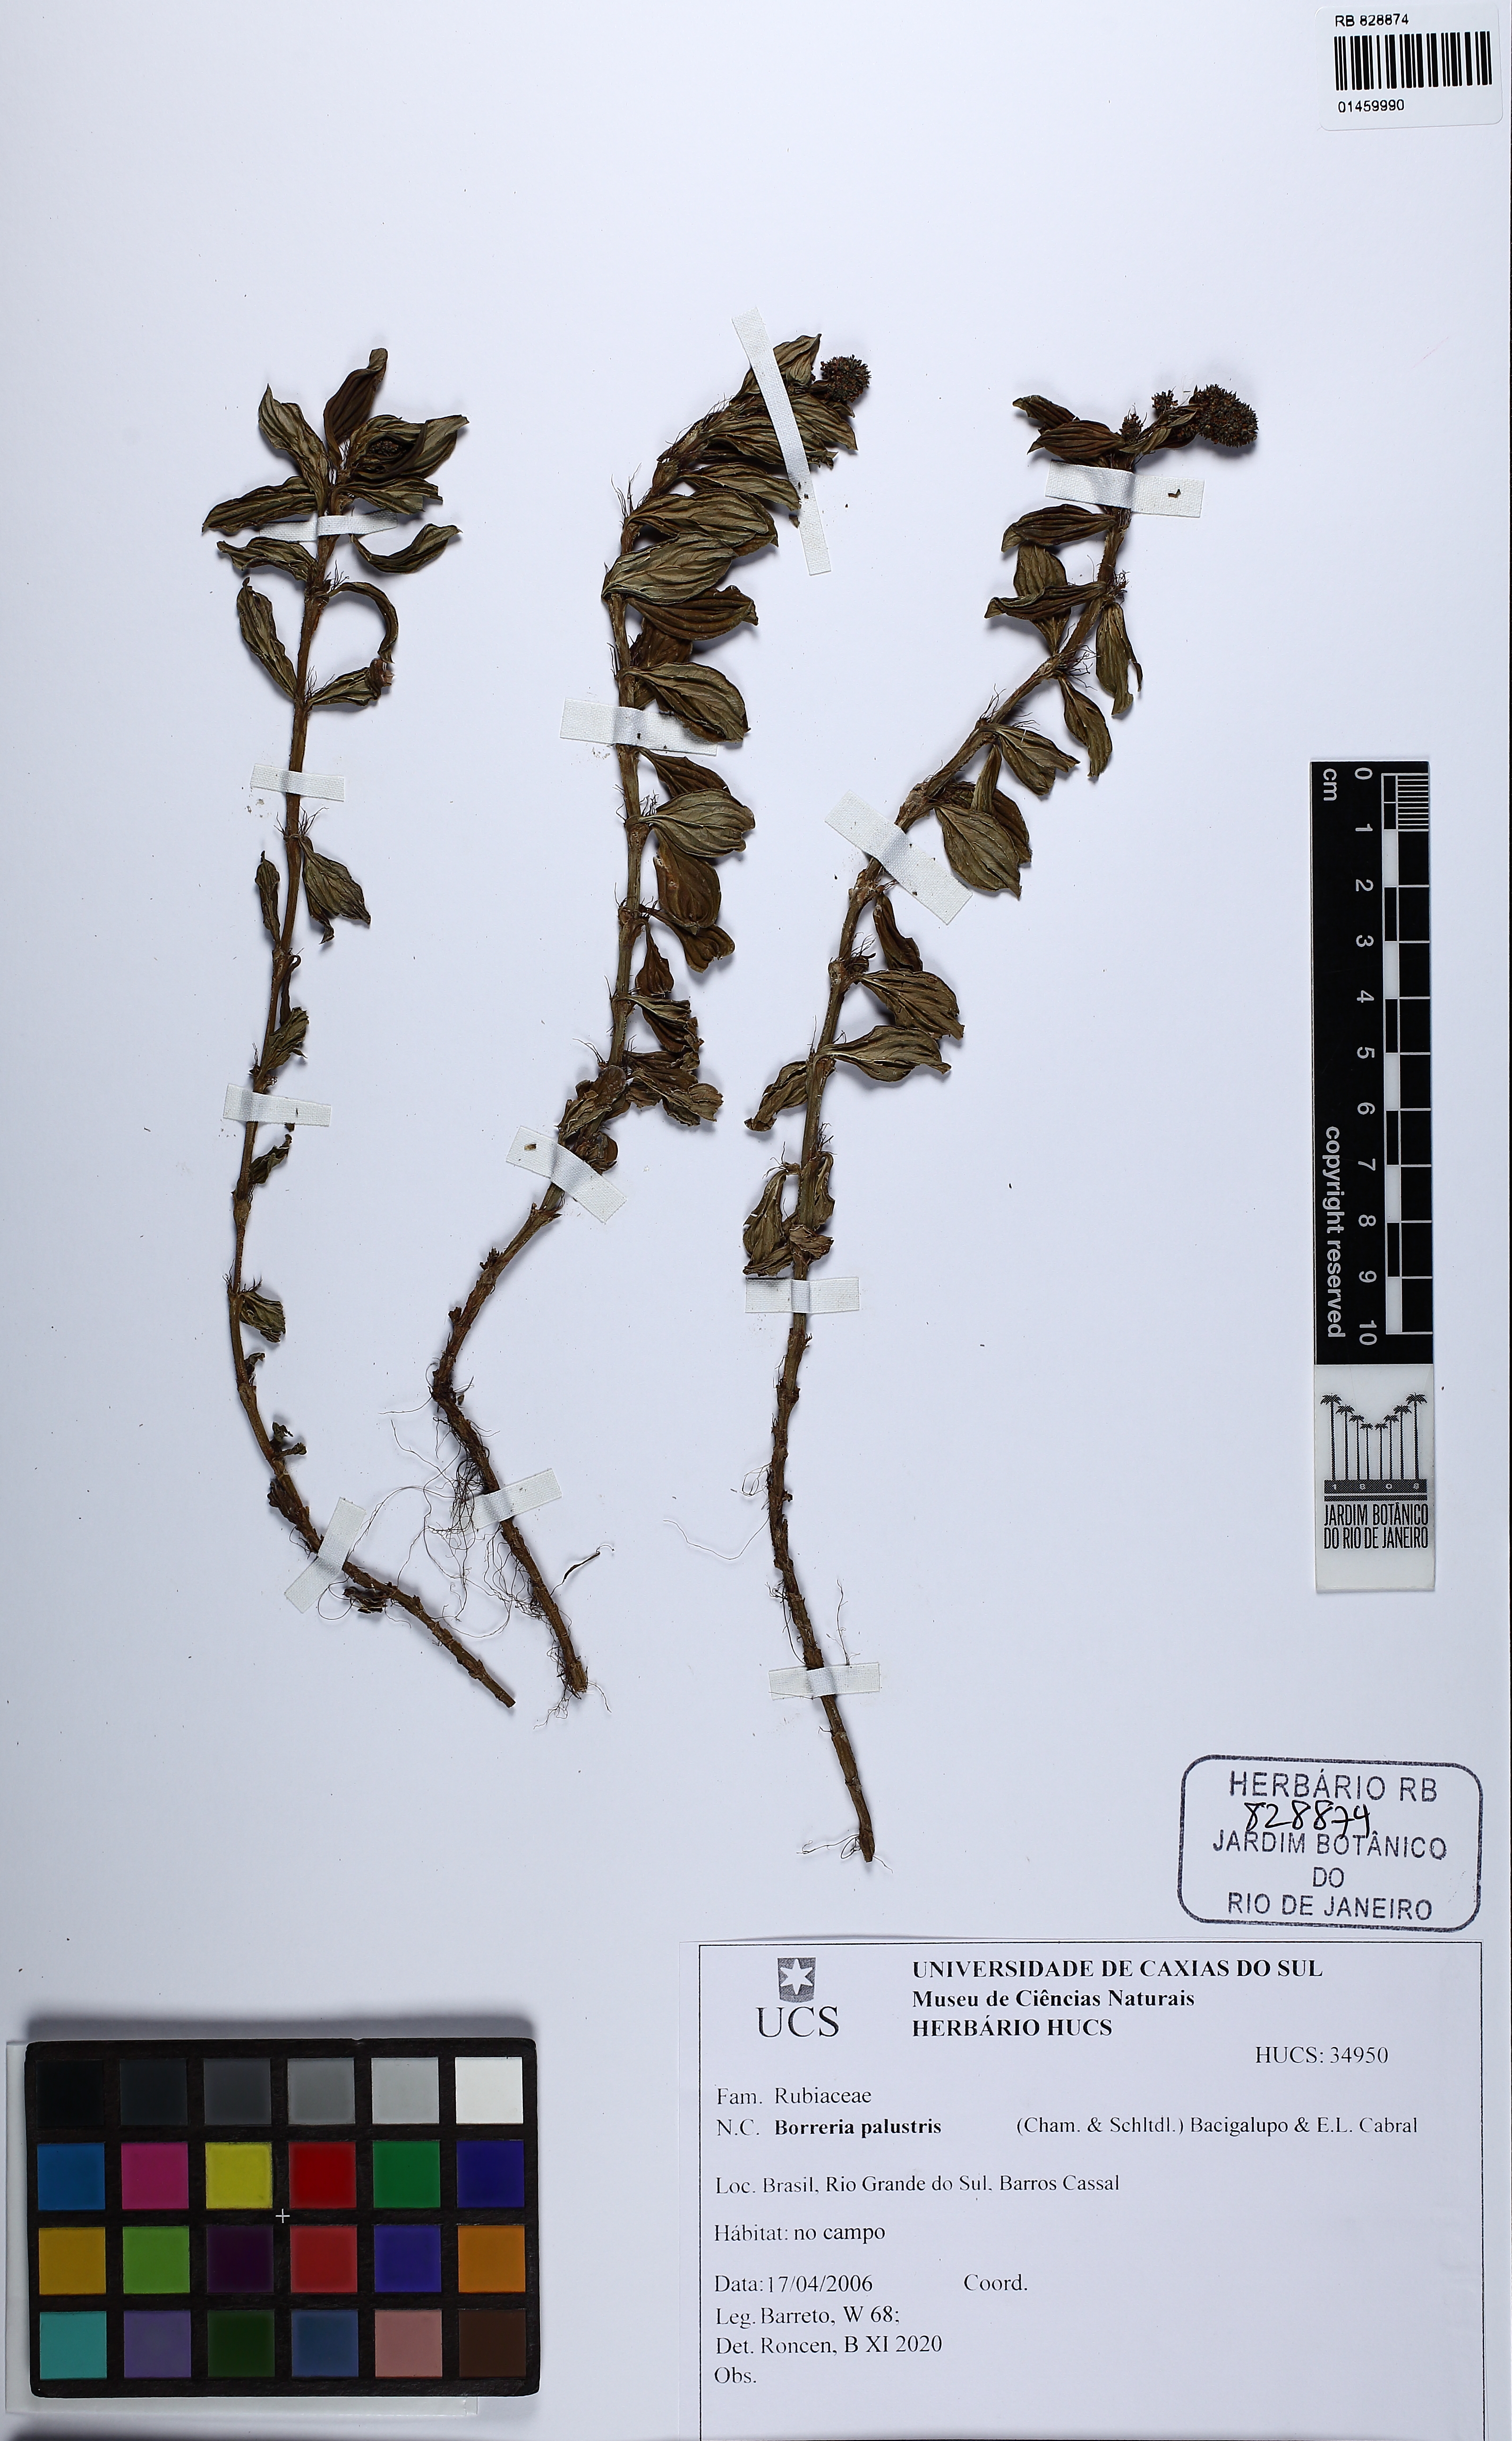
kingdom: Plantae
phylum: Tracheophyta
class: Magnoliopsida
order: Gentianales
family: Rubiaceae
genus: Galianthe
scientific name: Galianthe palustris
